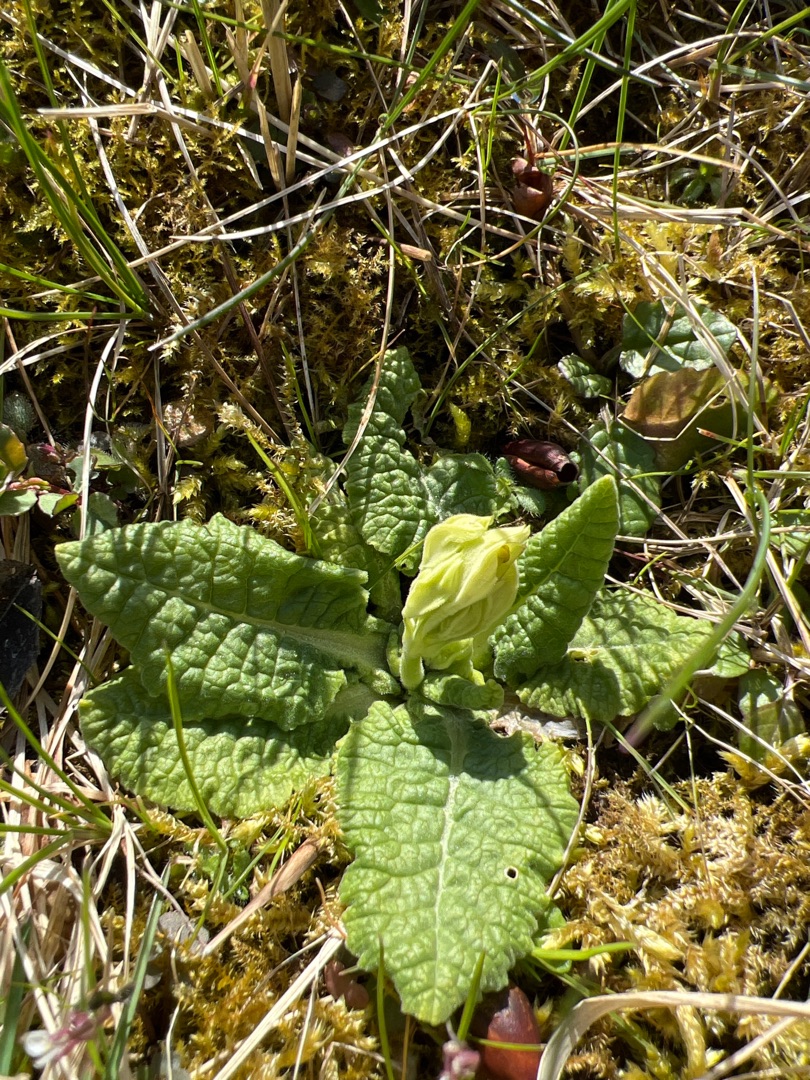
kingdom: Plantae
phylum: Tracheophyta
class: Magnoliopsida
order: Ericales
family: Primulaceae
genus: Primula
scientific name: Primula veris
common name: Hulkravet kodriver
